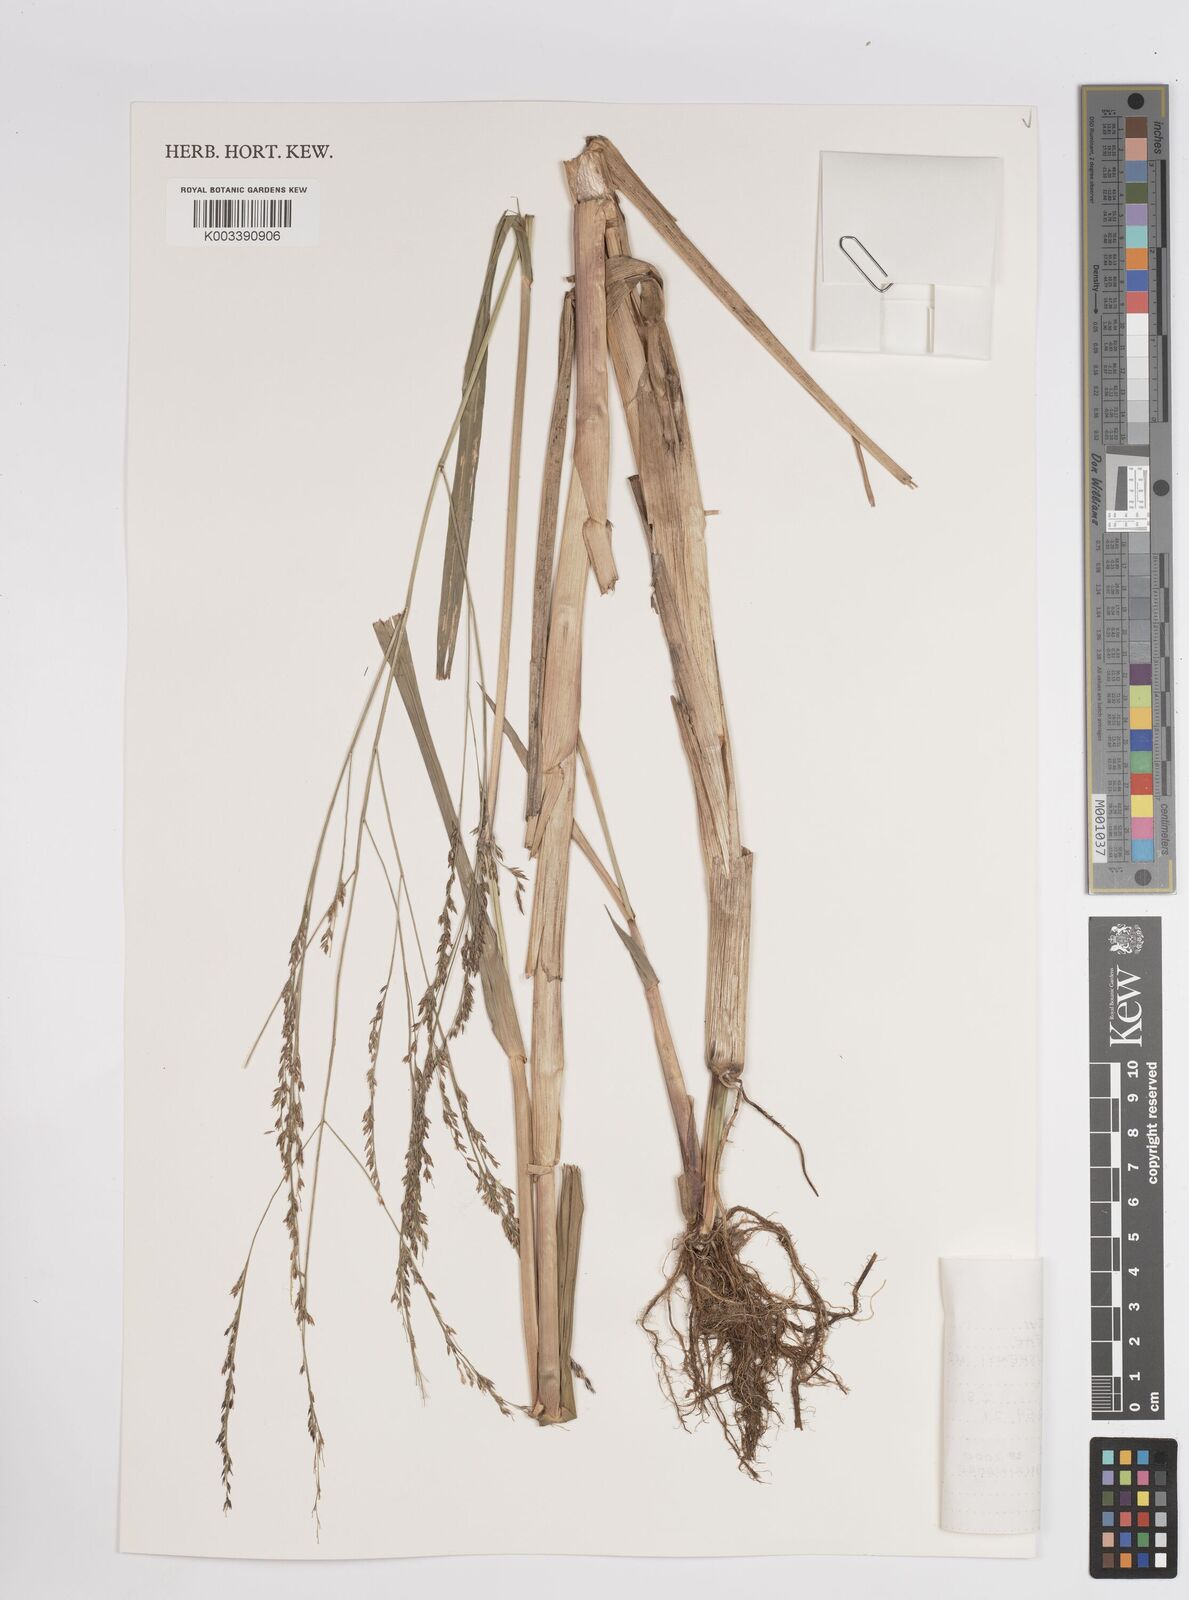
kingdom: Plantae
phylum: Tracheophyta
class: Liliopsida
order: Poales
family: Poaceae
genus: Panicum
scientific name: Panicum subalbidum
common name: Elbow buffalo grass
